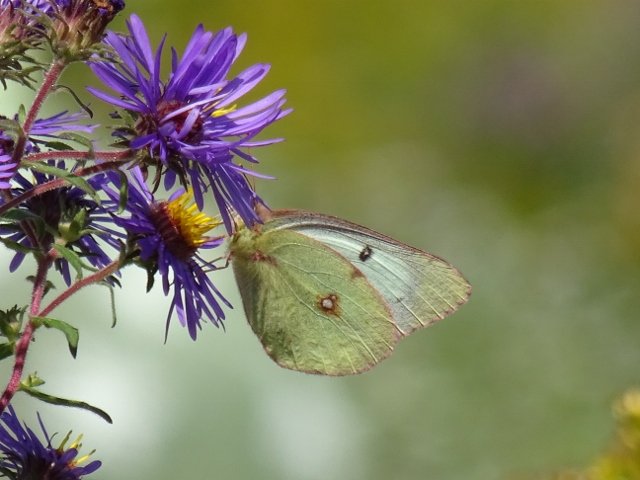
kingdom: Animalia
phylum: Arthropoda
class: Insecta
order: Lepidoptera
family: Pieridae
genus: Colias
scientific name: Colias philodice
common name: Clouded Sulphur
